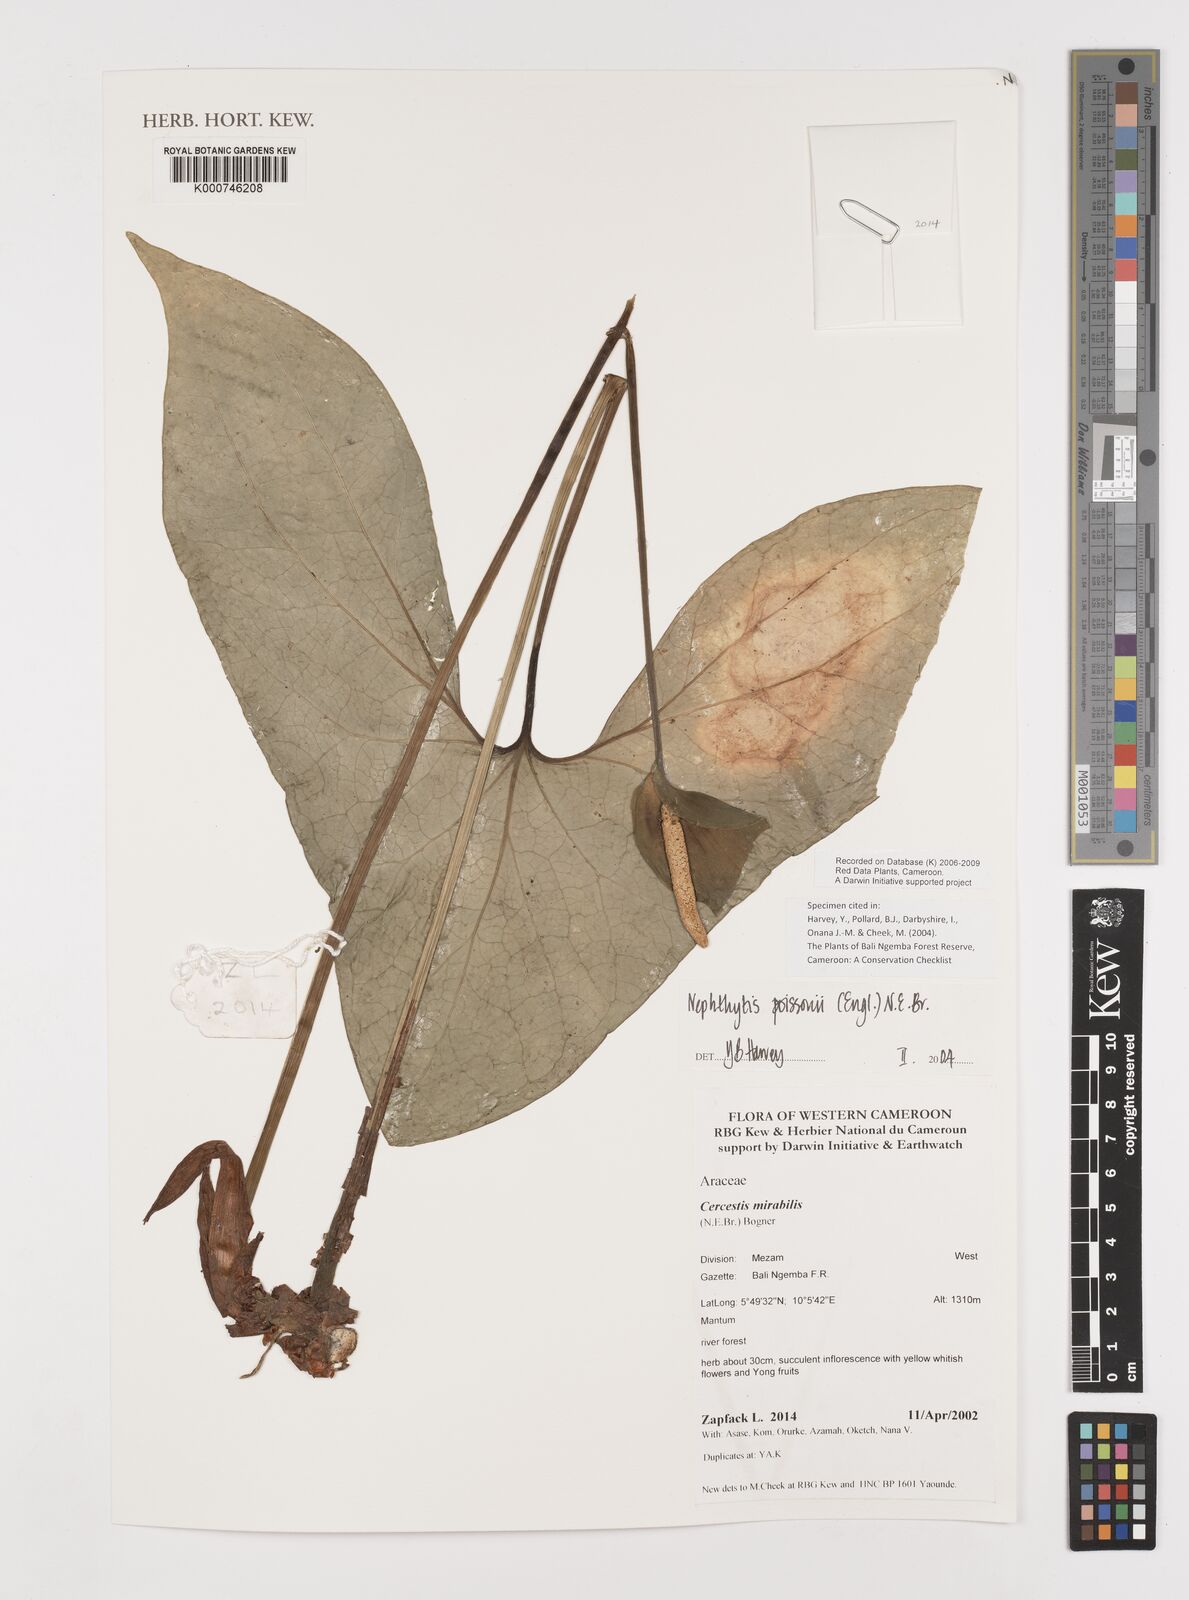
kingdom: Plantae
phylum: Tracheophyta
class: Liliopsida
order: Alismatales
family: Araceae
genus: Nephthytis
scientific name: Nephthytis poissonii
